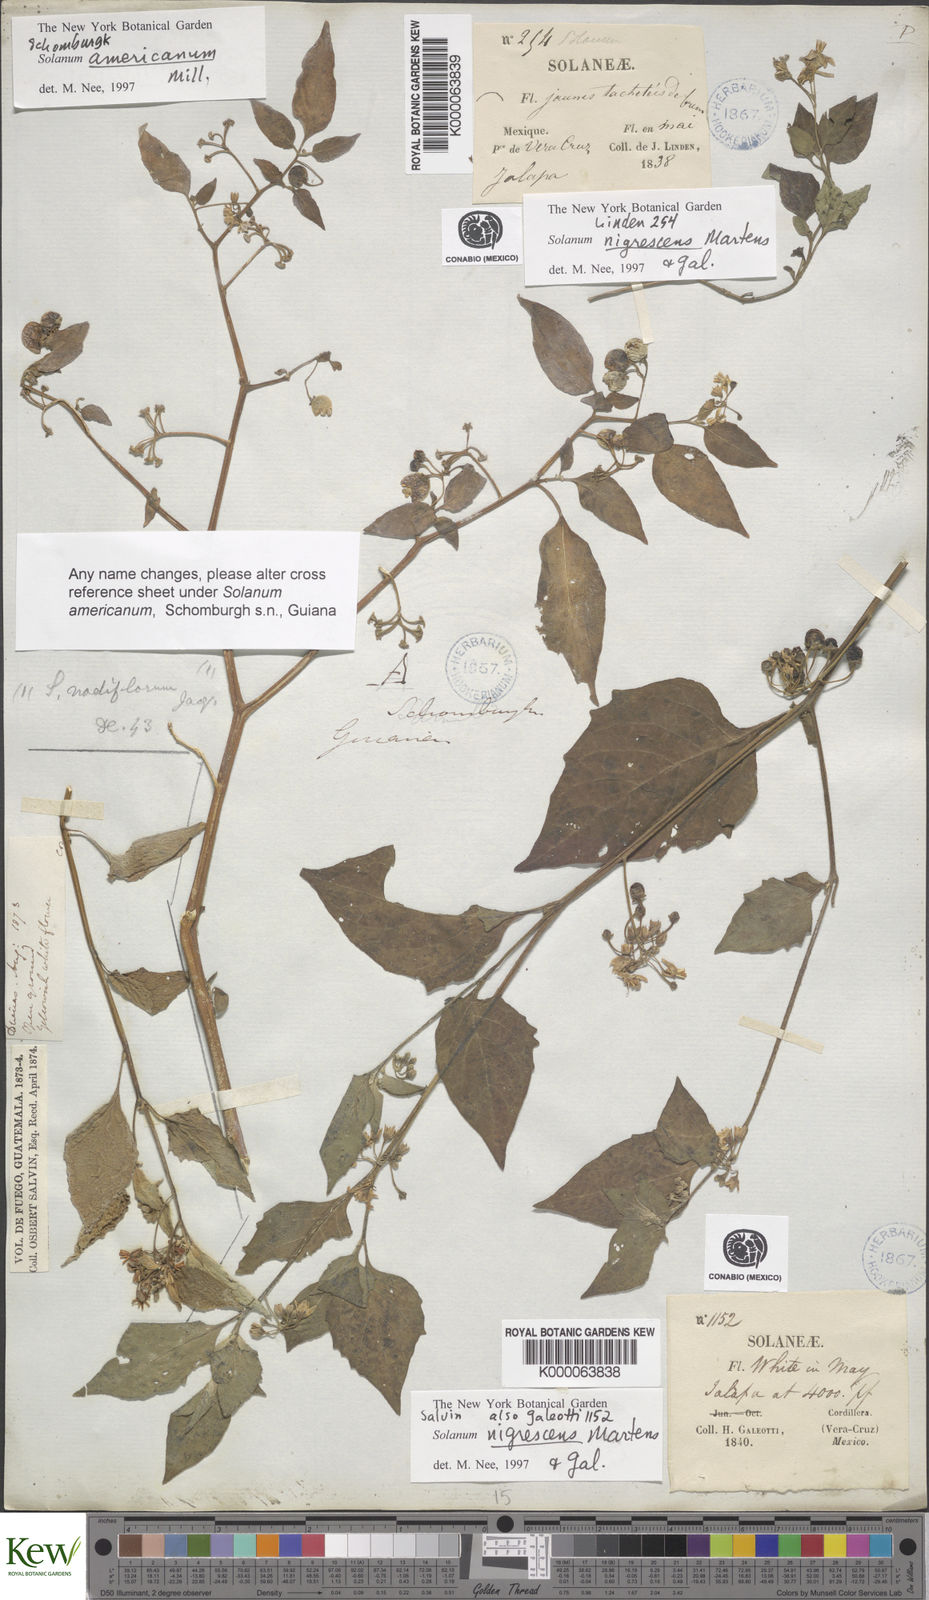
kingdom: Plantae
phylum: Tracheophyta
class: Magnoliopsida
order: Solanales
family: Solanaceae
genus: Solanum
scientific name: Solanum nigrescens
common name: Divine nightshade
